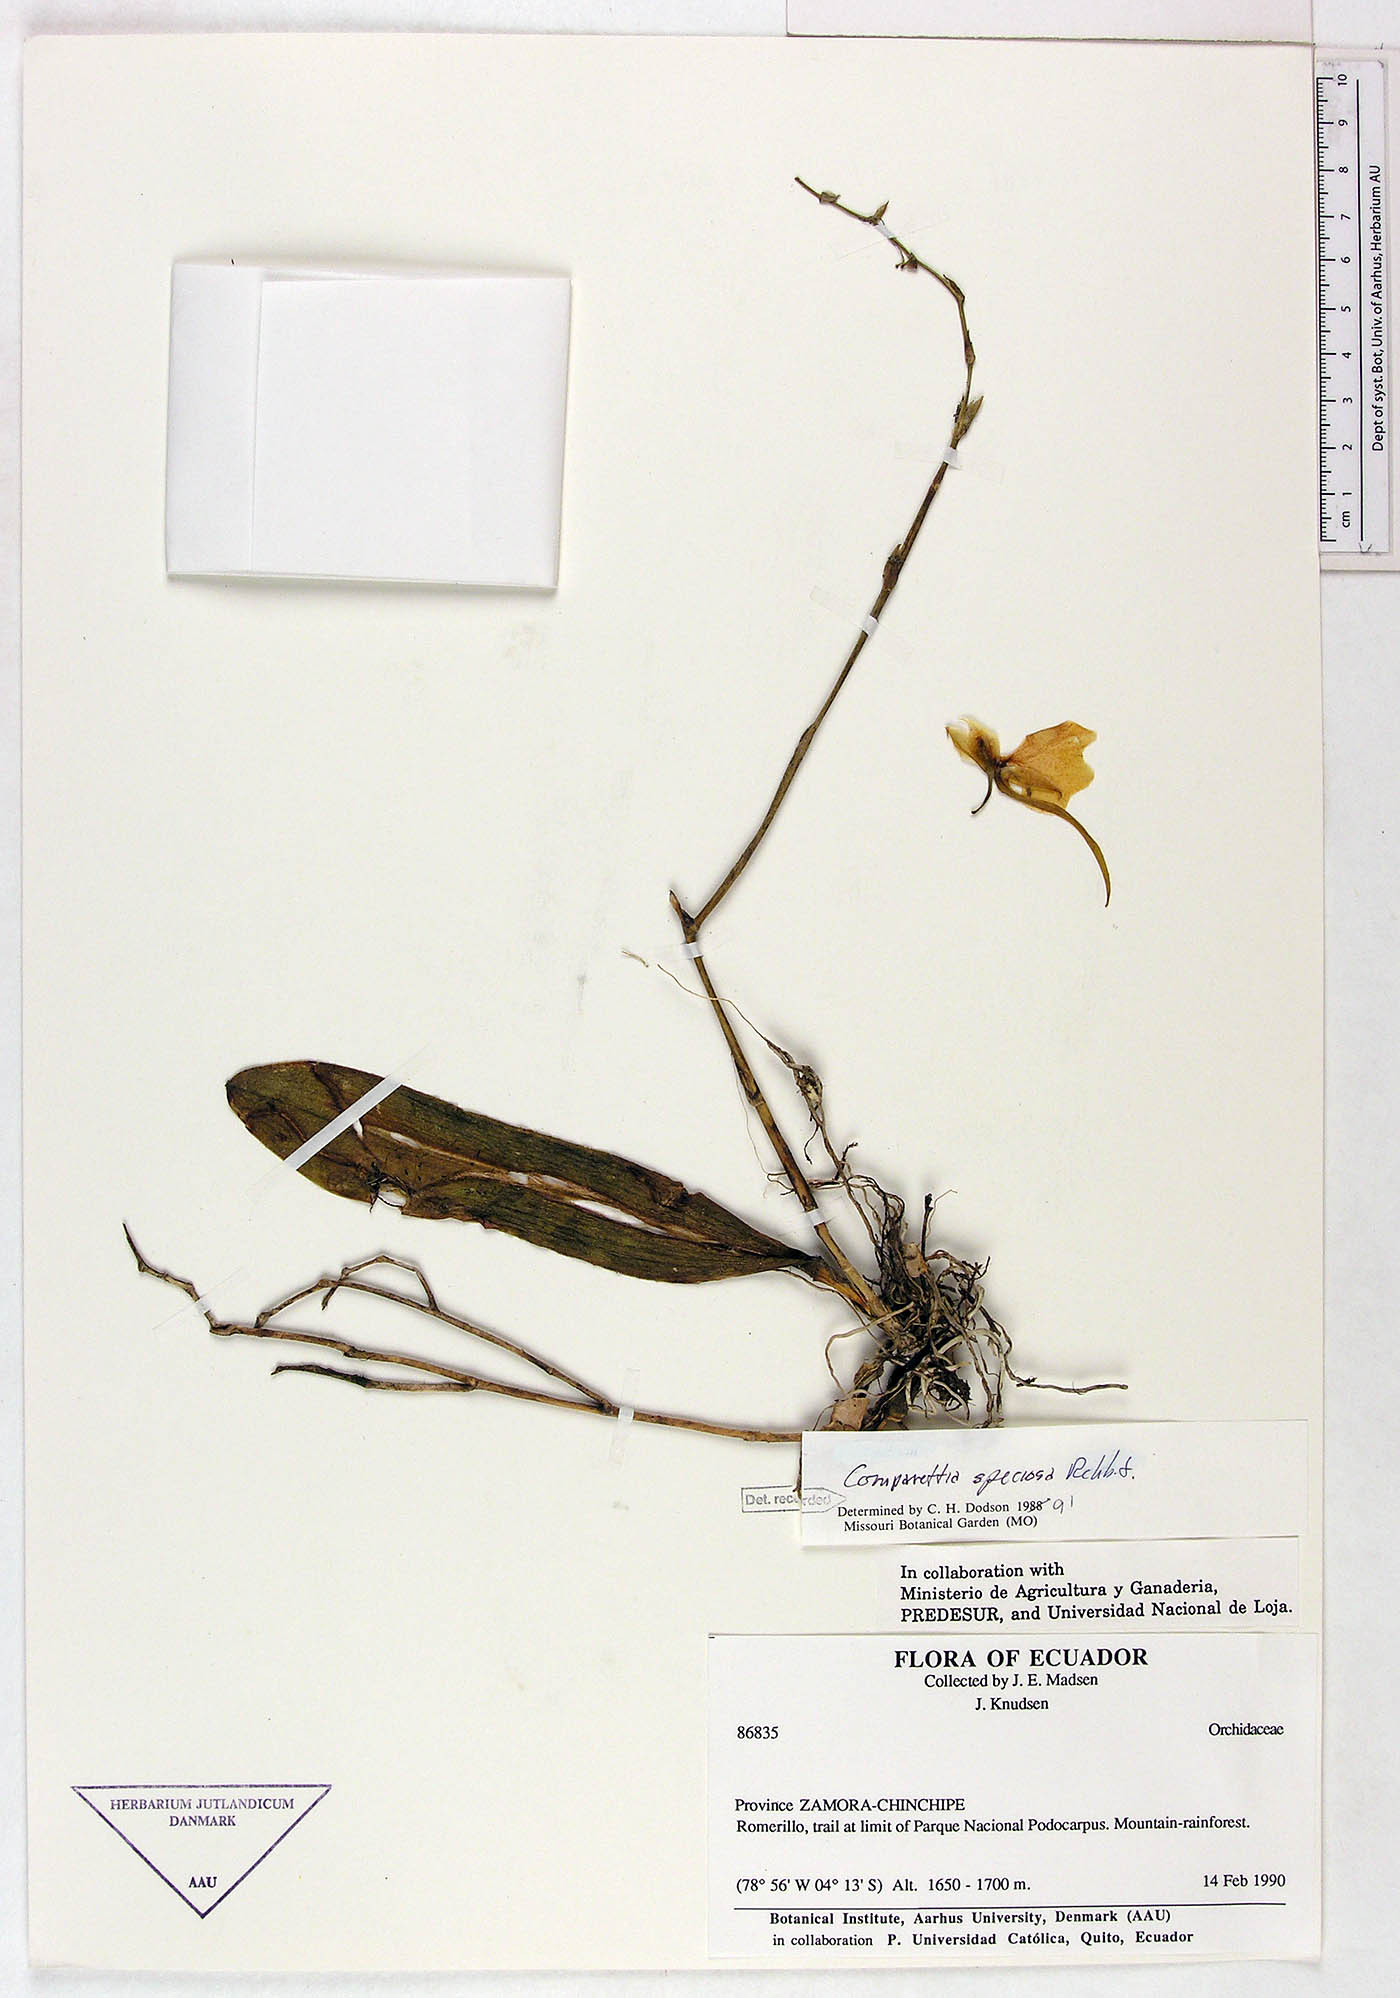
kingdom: Plantae
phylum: Tracheophyta
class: Liliopsida
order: Asparagales
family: Orchidaceae
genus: Comparettia
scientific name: Comparettia speciosa
